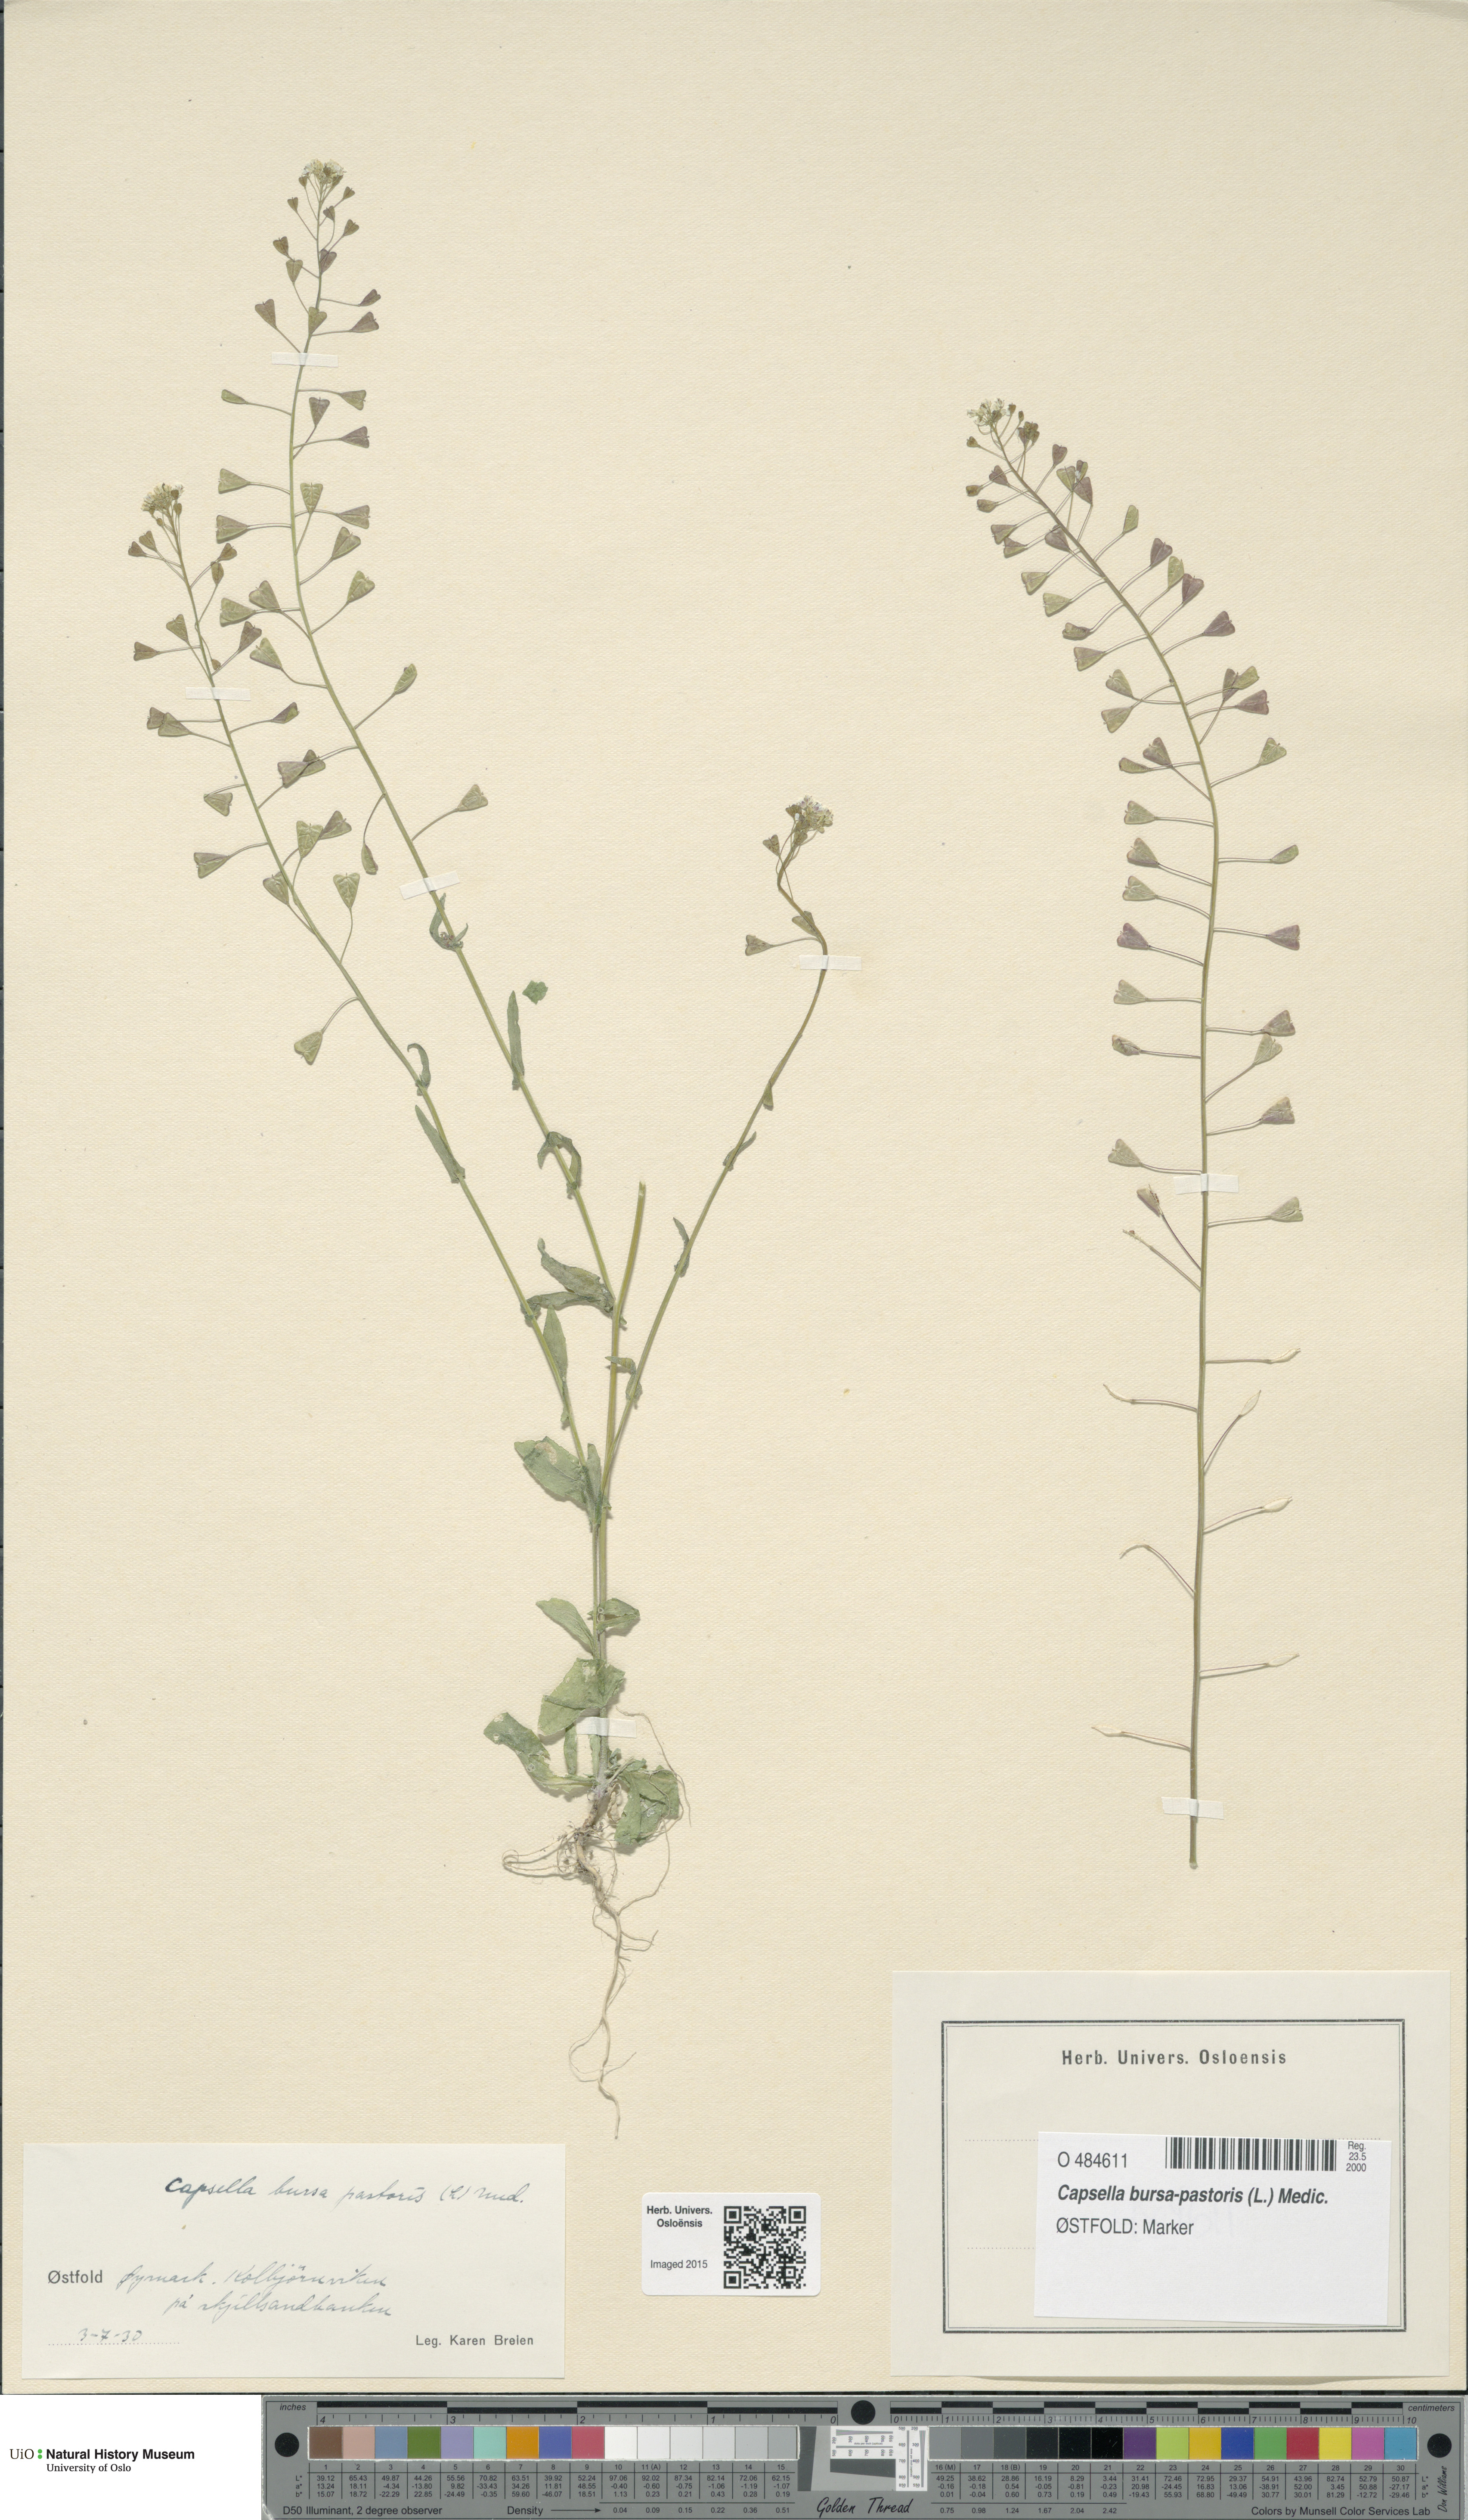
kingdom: Plantae
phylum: Tracheophyta
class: Magnoliopsida
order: Brassicales
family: Brassicaceae
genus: Capsella
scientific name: Capsella bursa-pastoris
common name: Shepherd's purse
